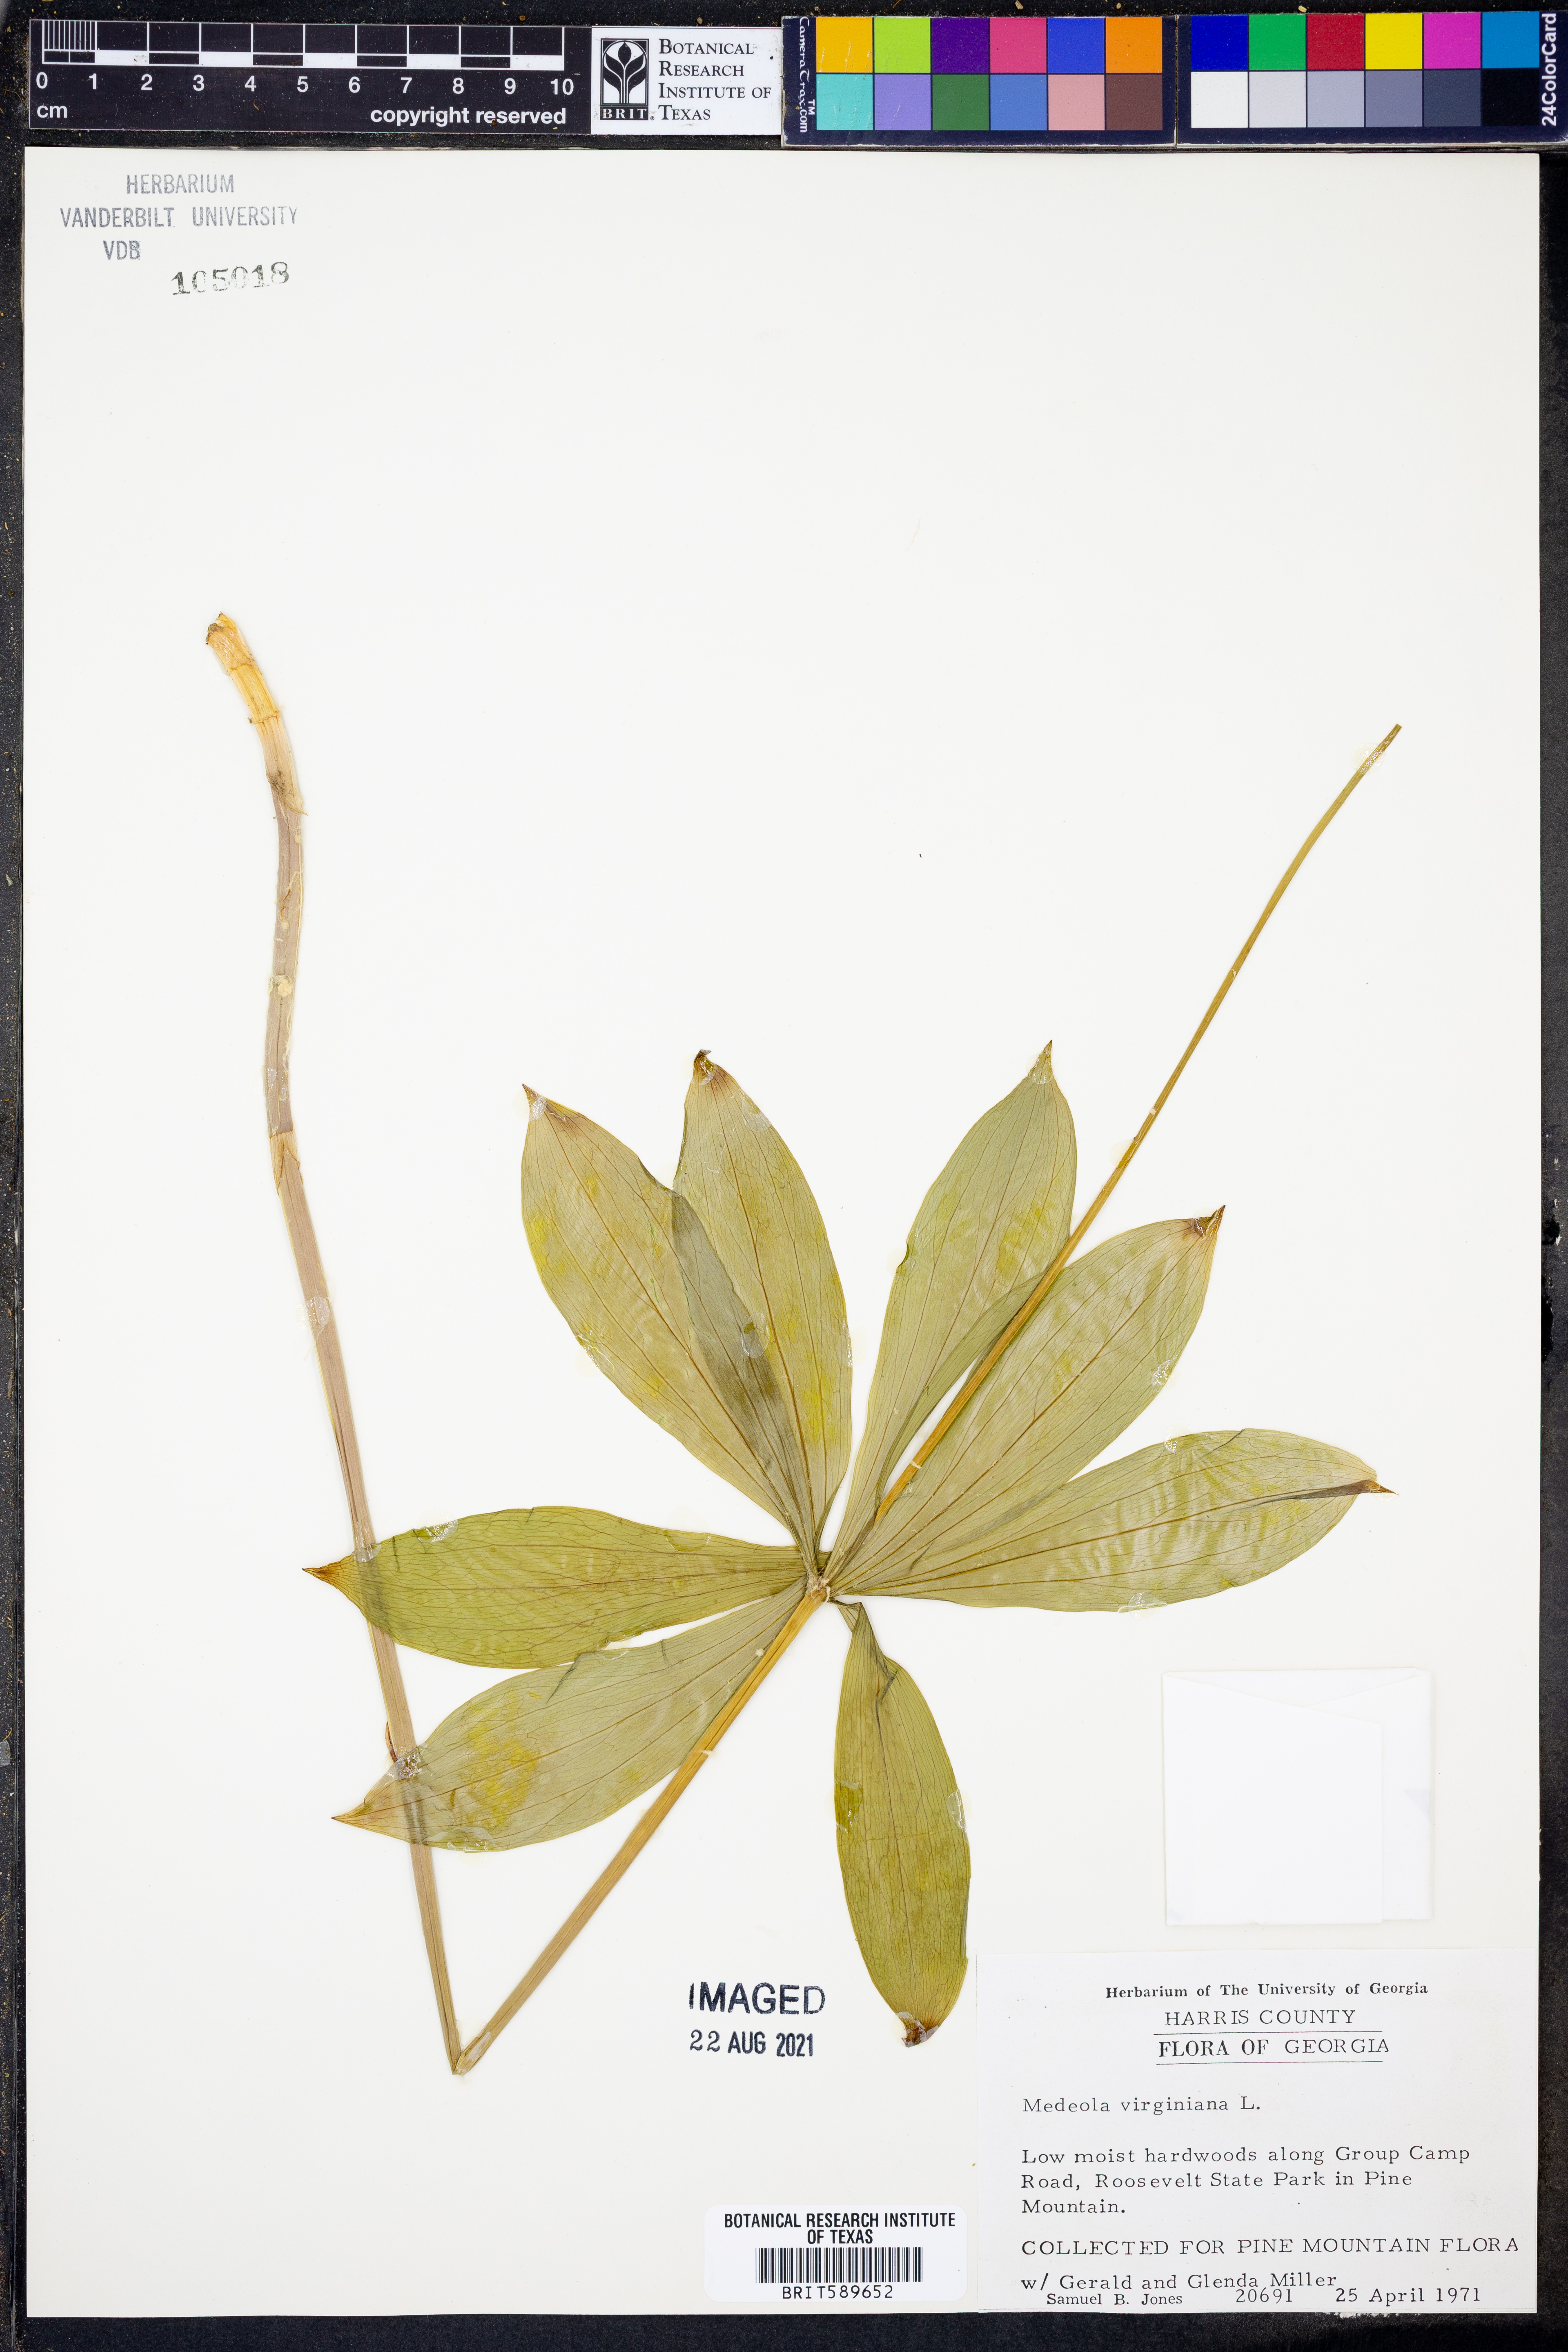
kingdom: Plantae
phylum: Tracheophyta
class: Liliopsida
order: Liliales
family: Liliaceae
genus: Medeola
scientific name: Medeola virginiana
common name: Indian cucumber-root
